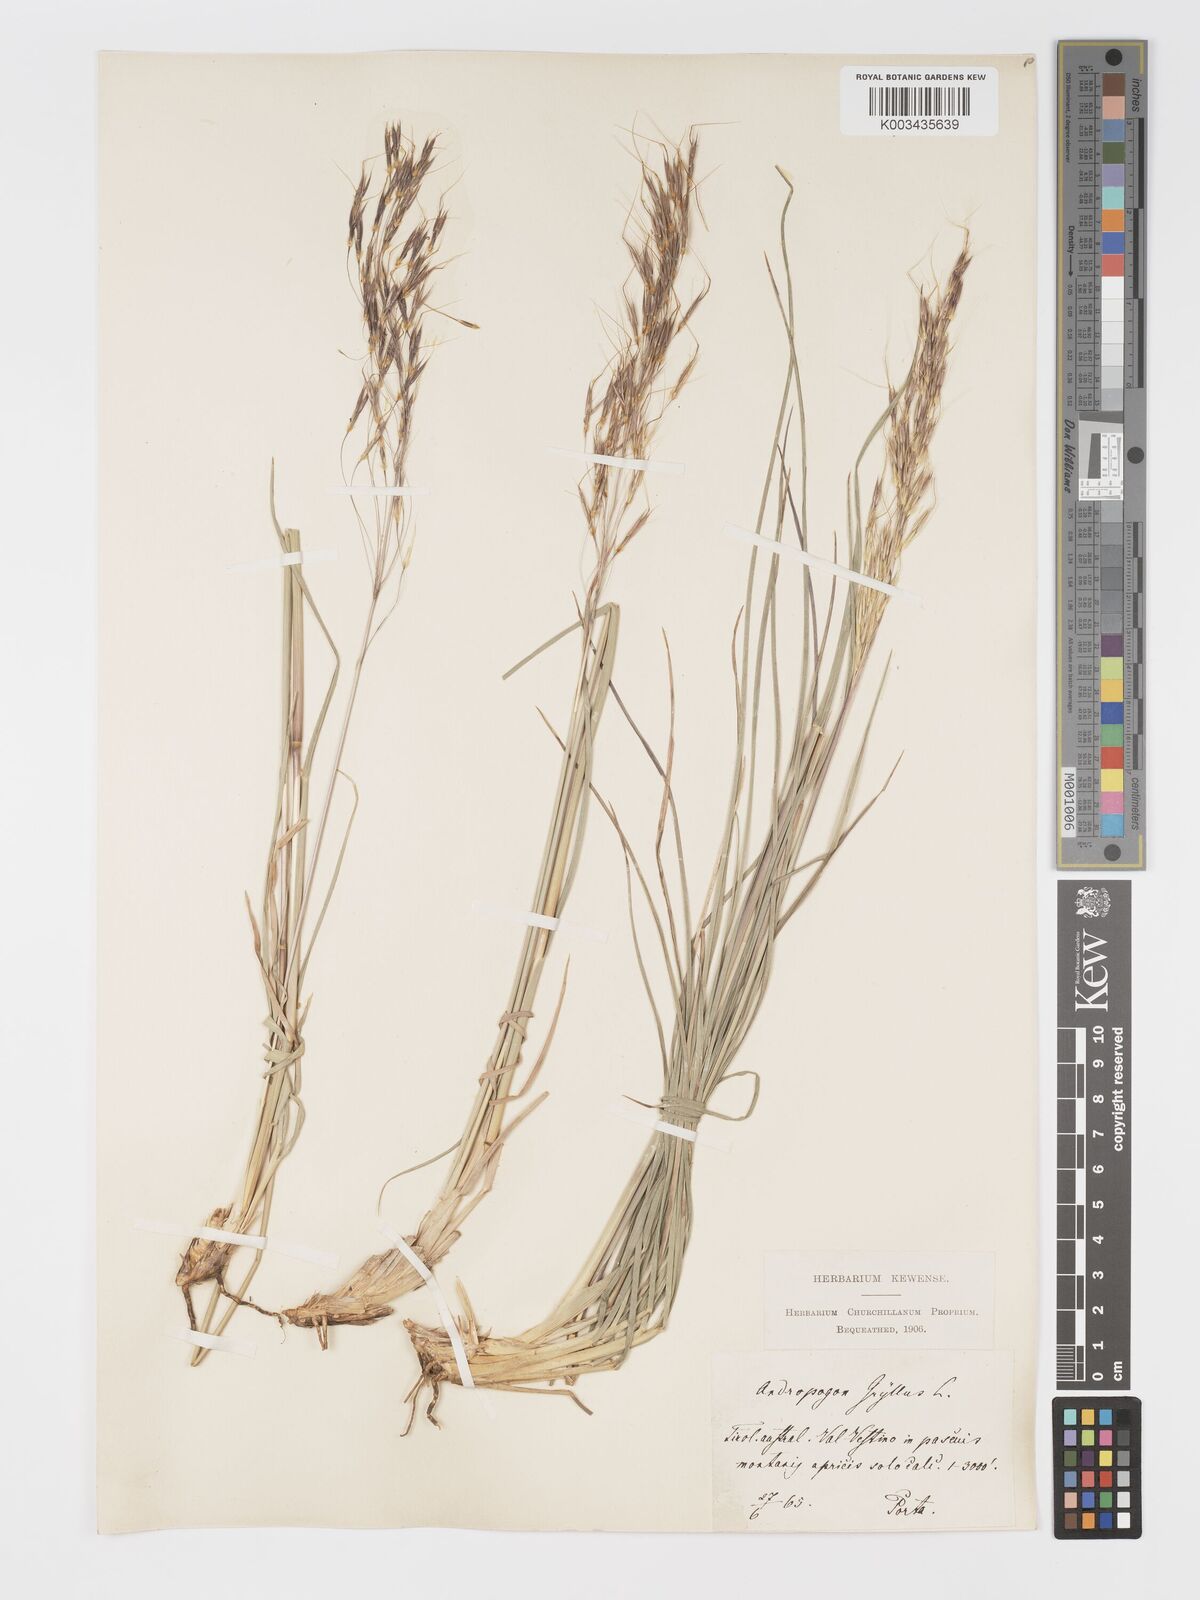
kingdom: Plantae
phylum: Tracheophyta
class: Liliopsida
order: Poales
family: Poaceae
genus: Chrysopogon
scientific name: Chrysopogon gryllus
